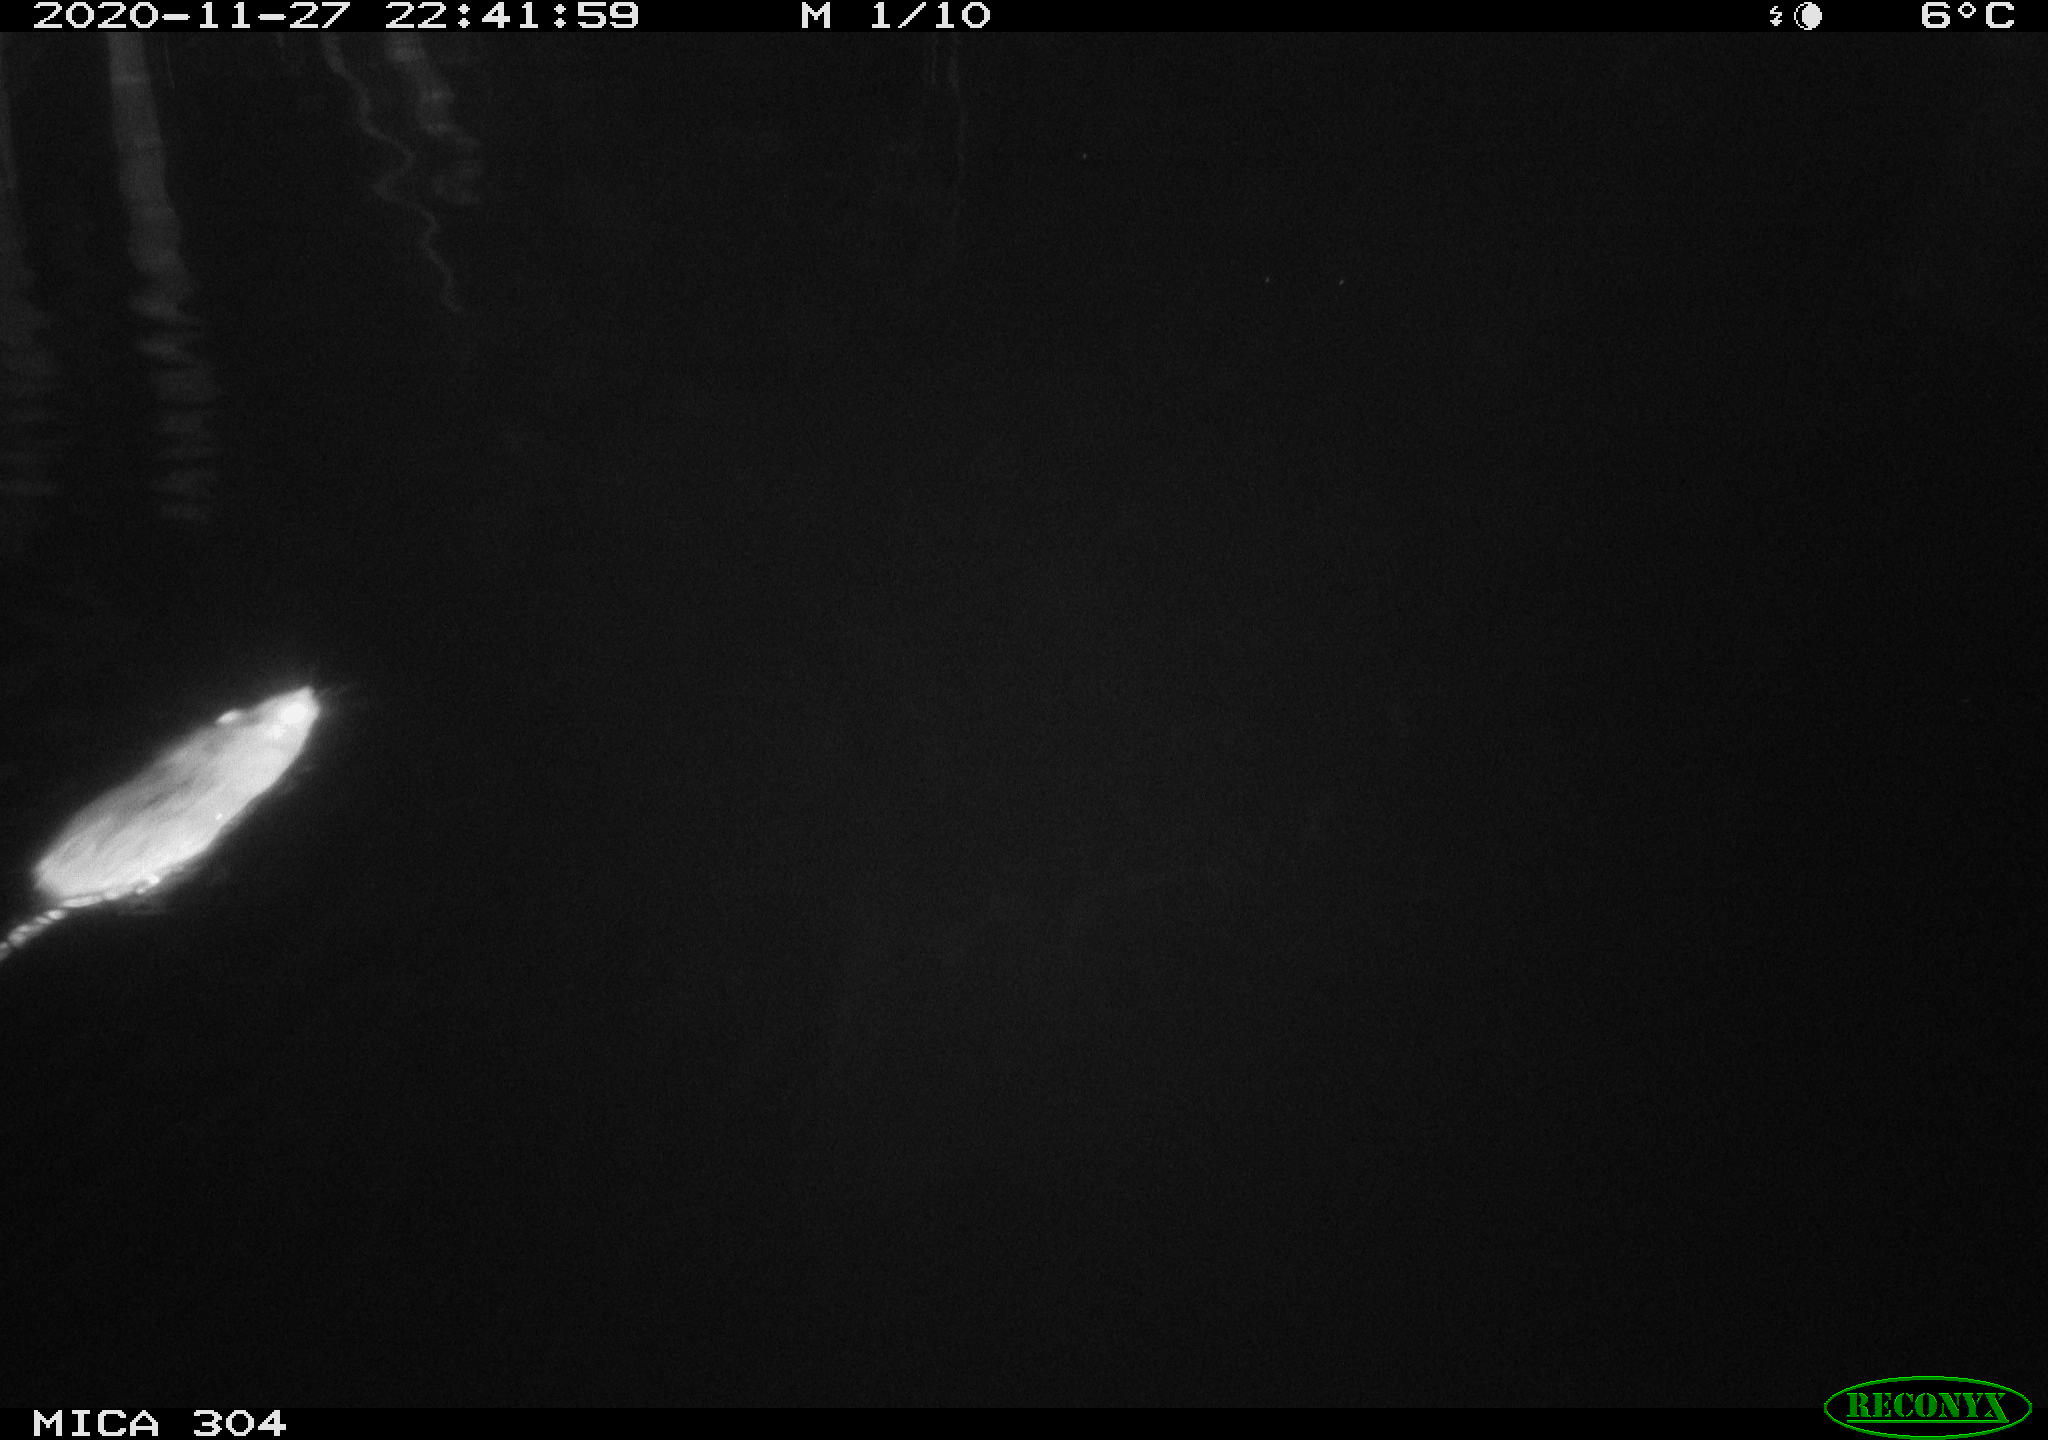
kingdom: Animalia
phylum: Chordata
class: Mammalia
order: Rodentia
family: Muridae
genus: Rattus
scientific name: Rattus norvegicus
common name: Brown rat
